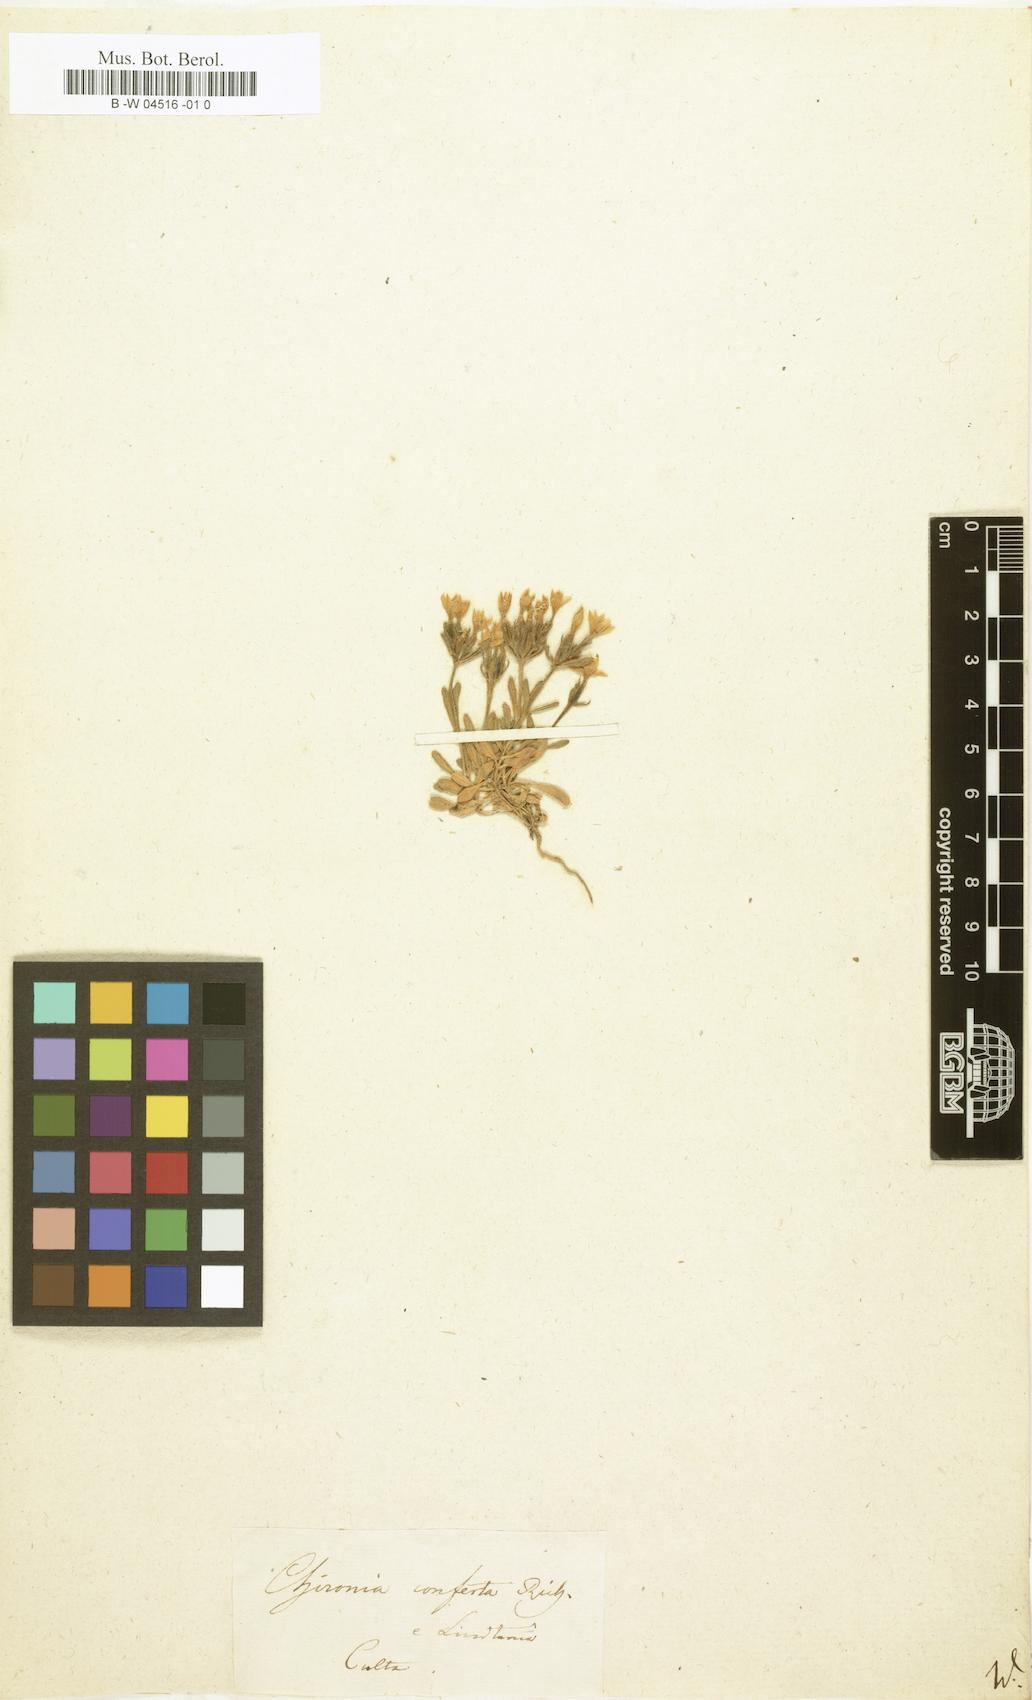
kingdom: Plantae
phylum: Tracheophyta
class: Magnoliopsida
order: Gentianales
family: Gentianaceae
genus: Centaurium
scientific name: Centaurium chloodes
